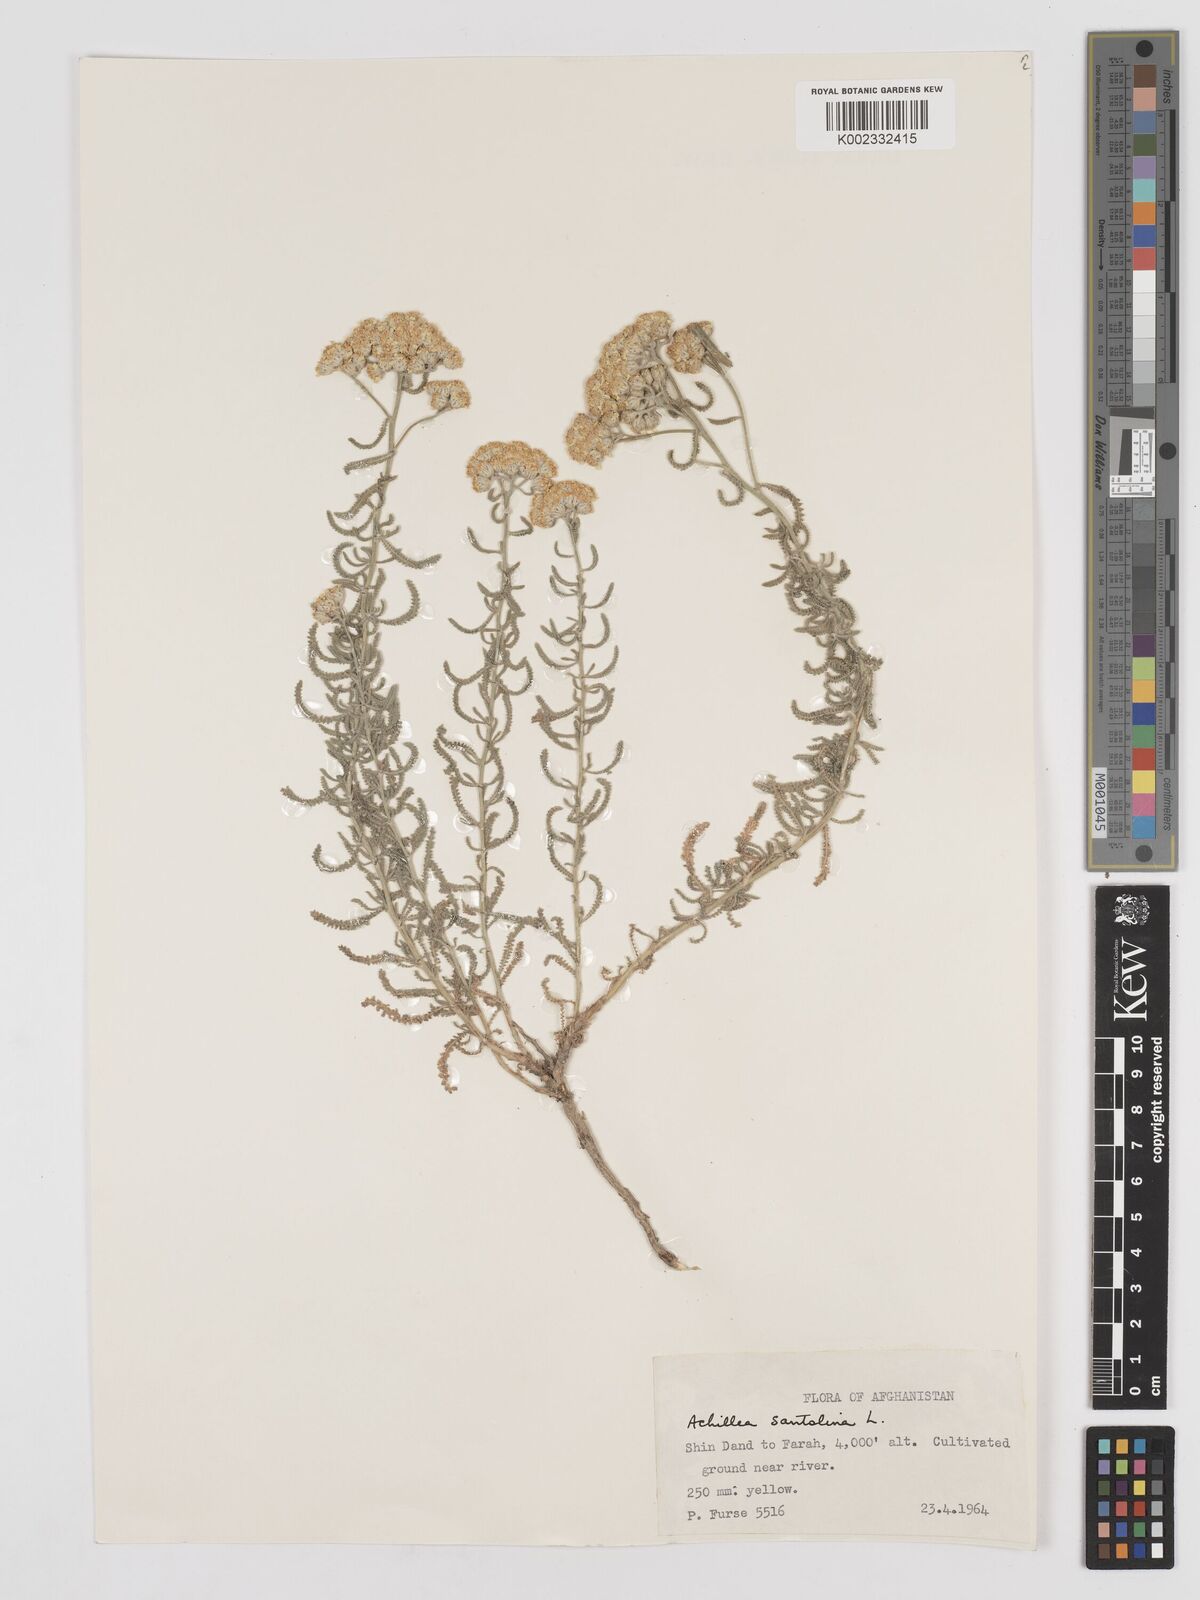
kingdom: Plantae
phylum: Tracheophyta
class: Magnoliopsida
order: Asterales
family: Asteraceae
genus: Achillea
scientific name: Achillea tenuifolia
